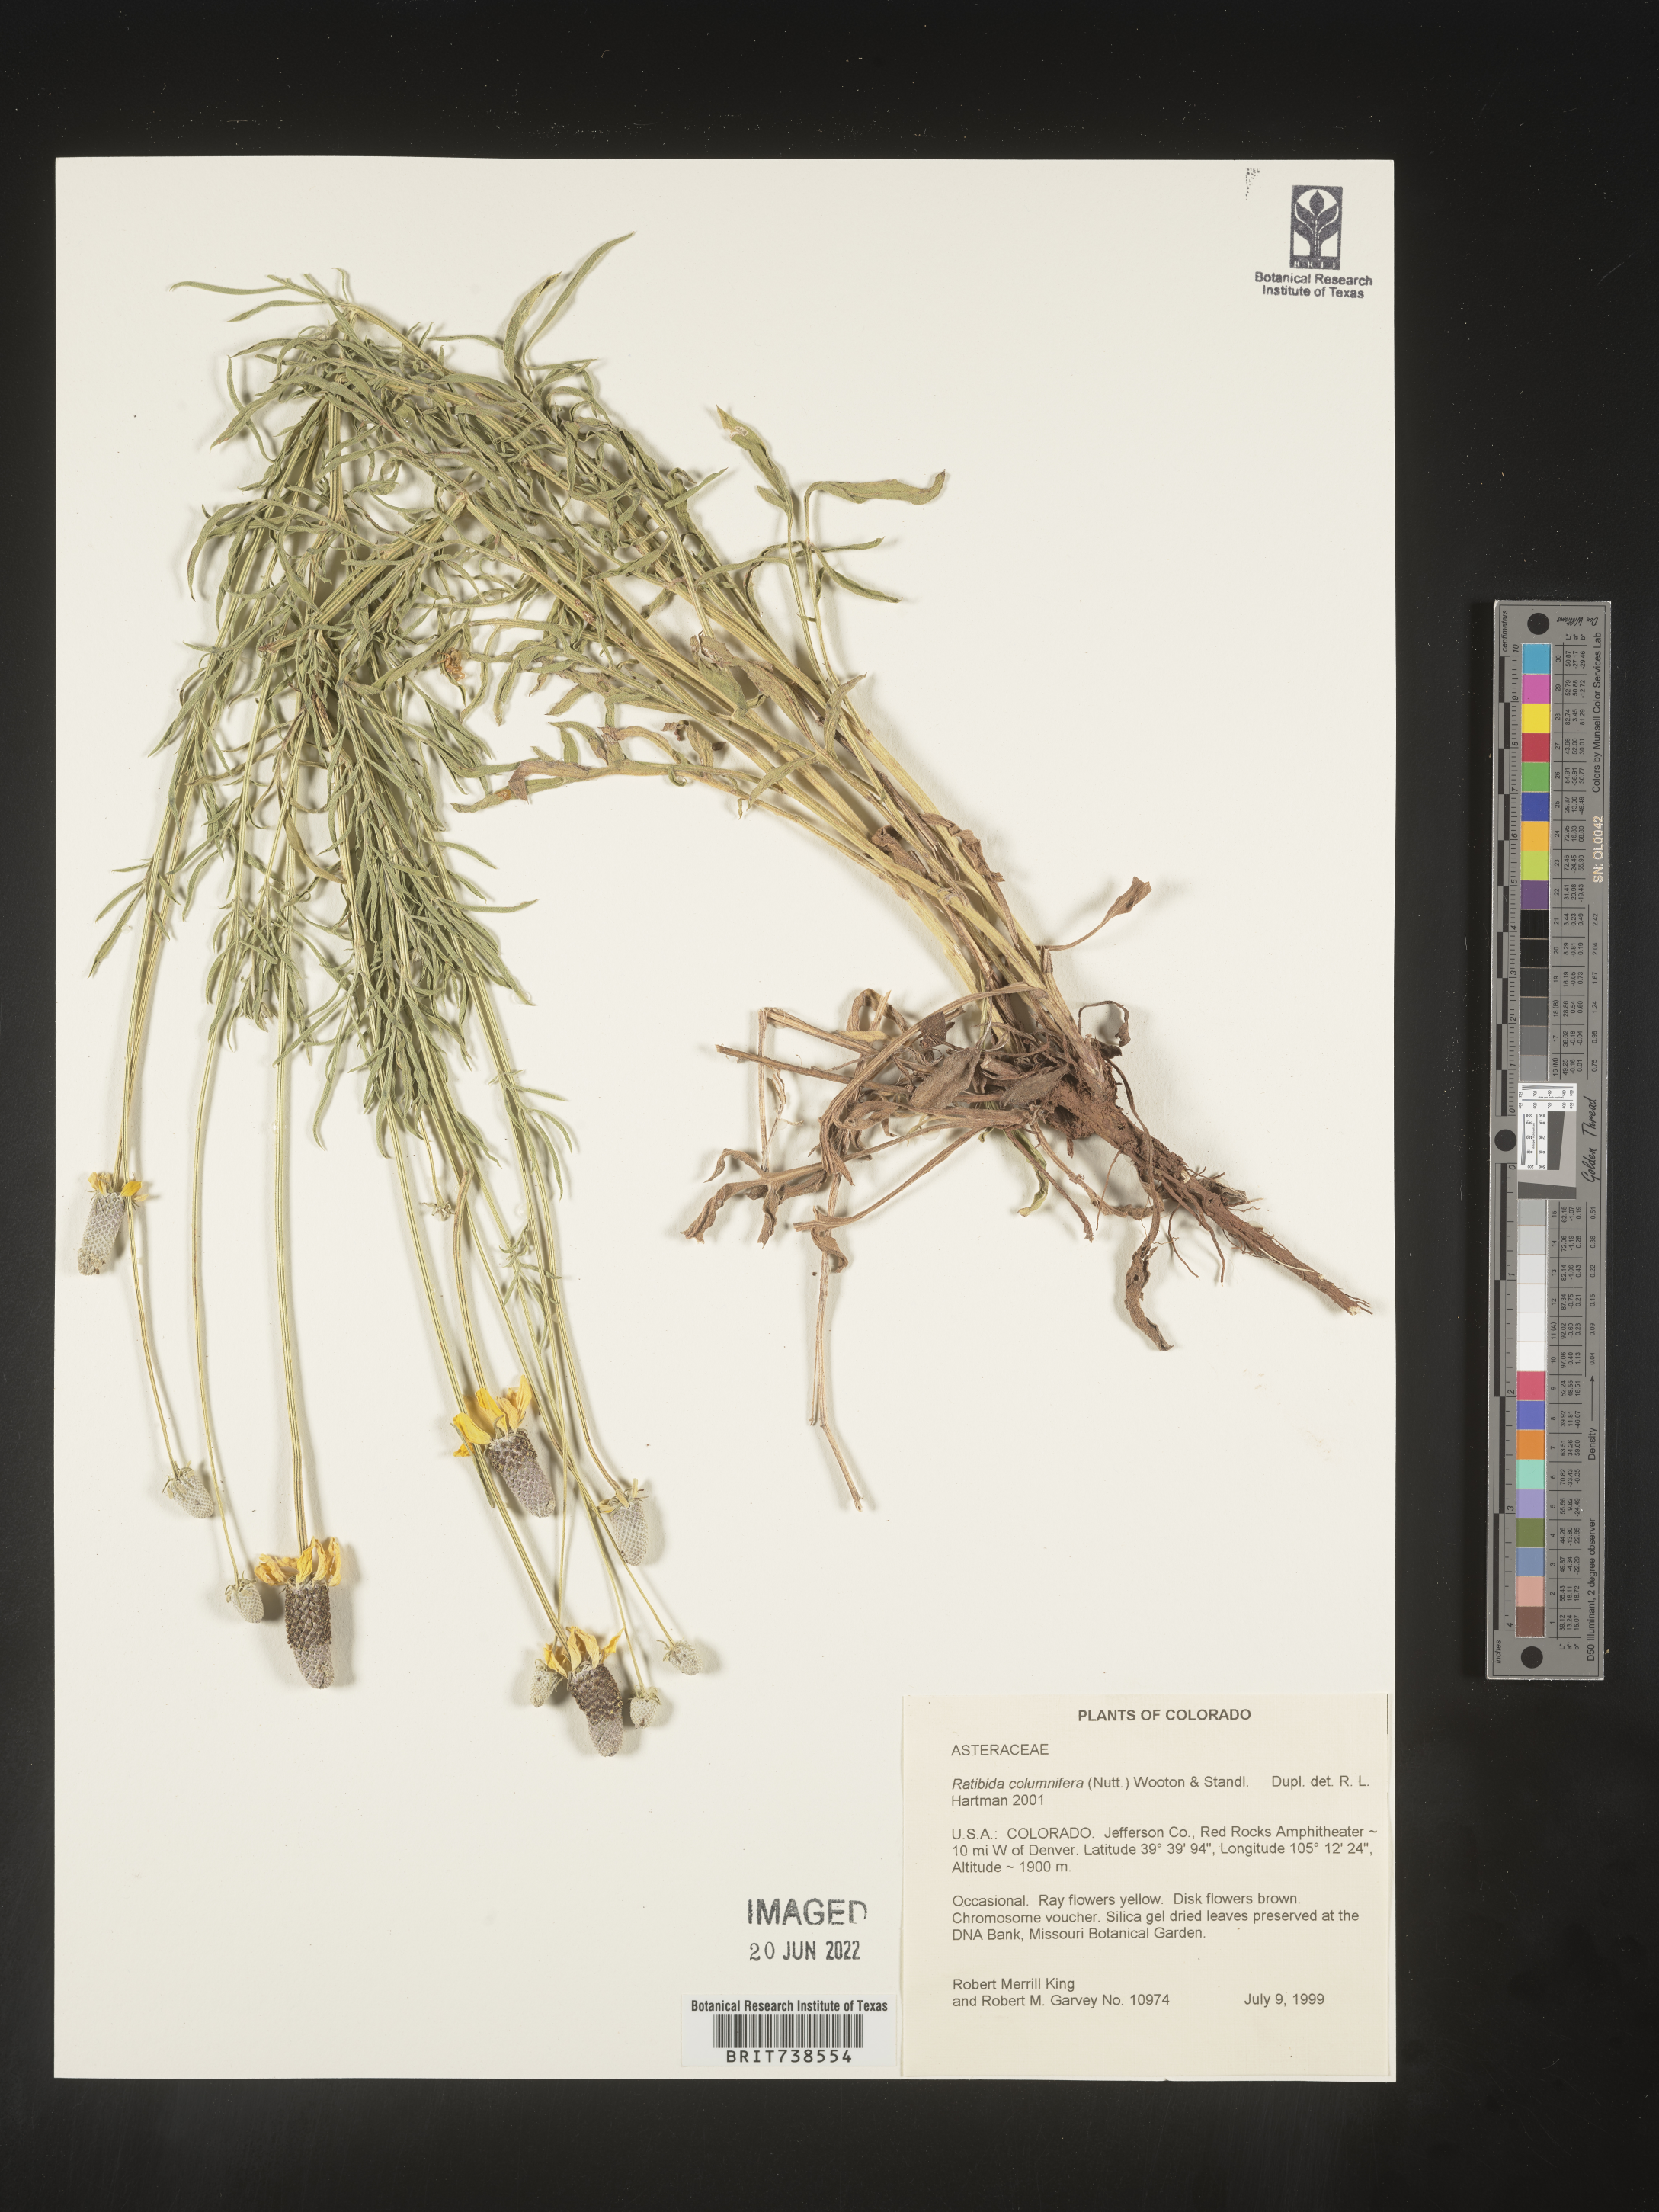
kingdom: Plantae
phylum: Tracheophyta
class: Magnoliopsida
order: Asterales
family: Asteraceae
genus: Ratibida
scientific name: Ratibida columnifera
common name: Prairie coneflower
